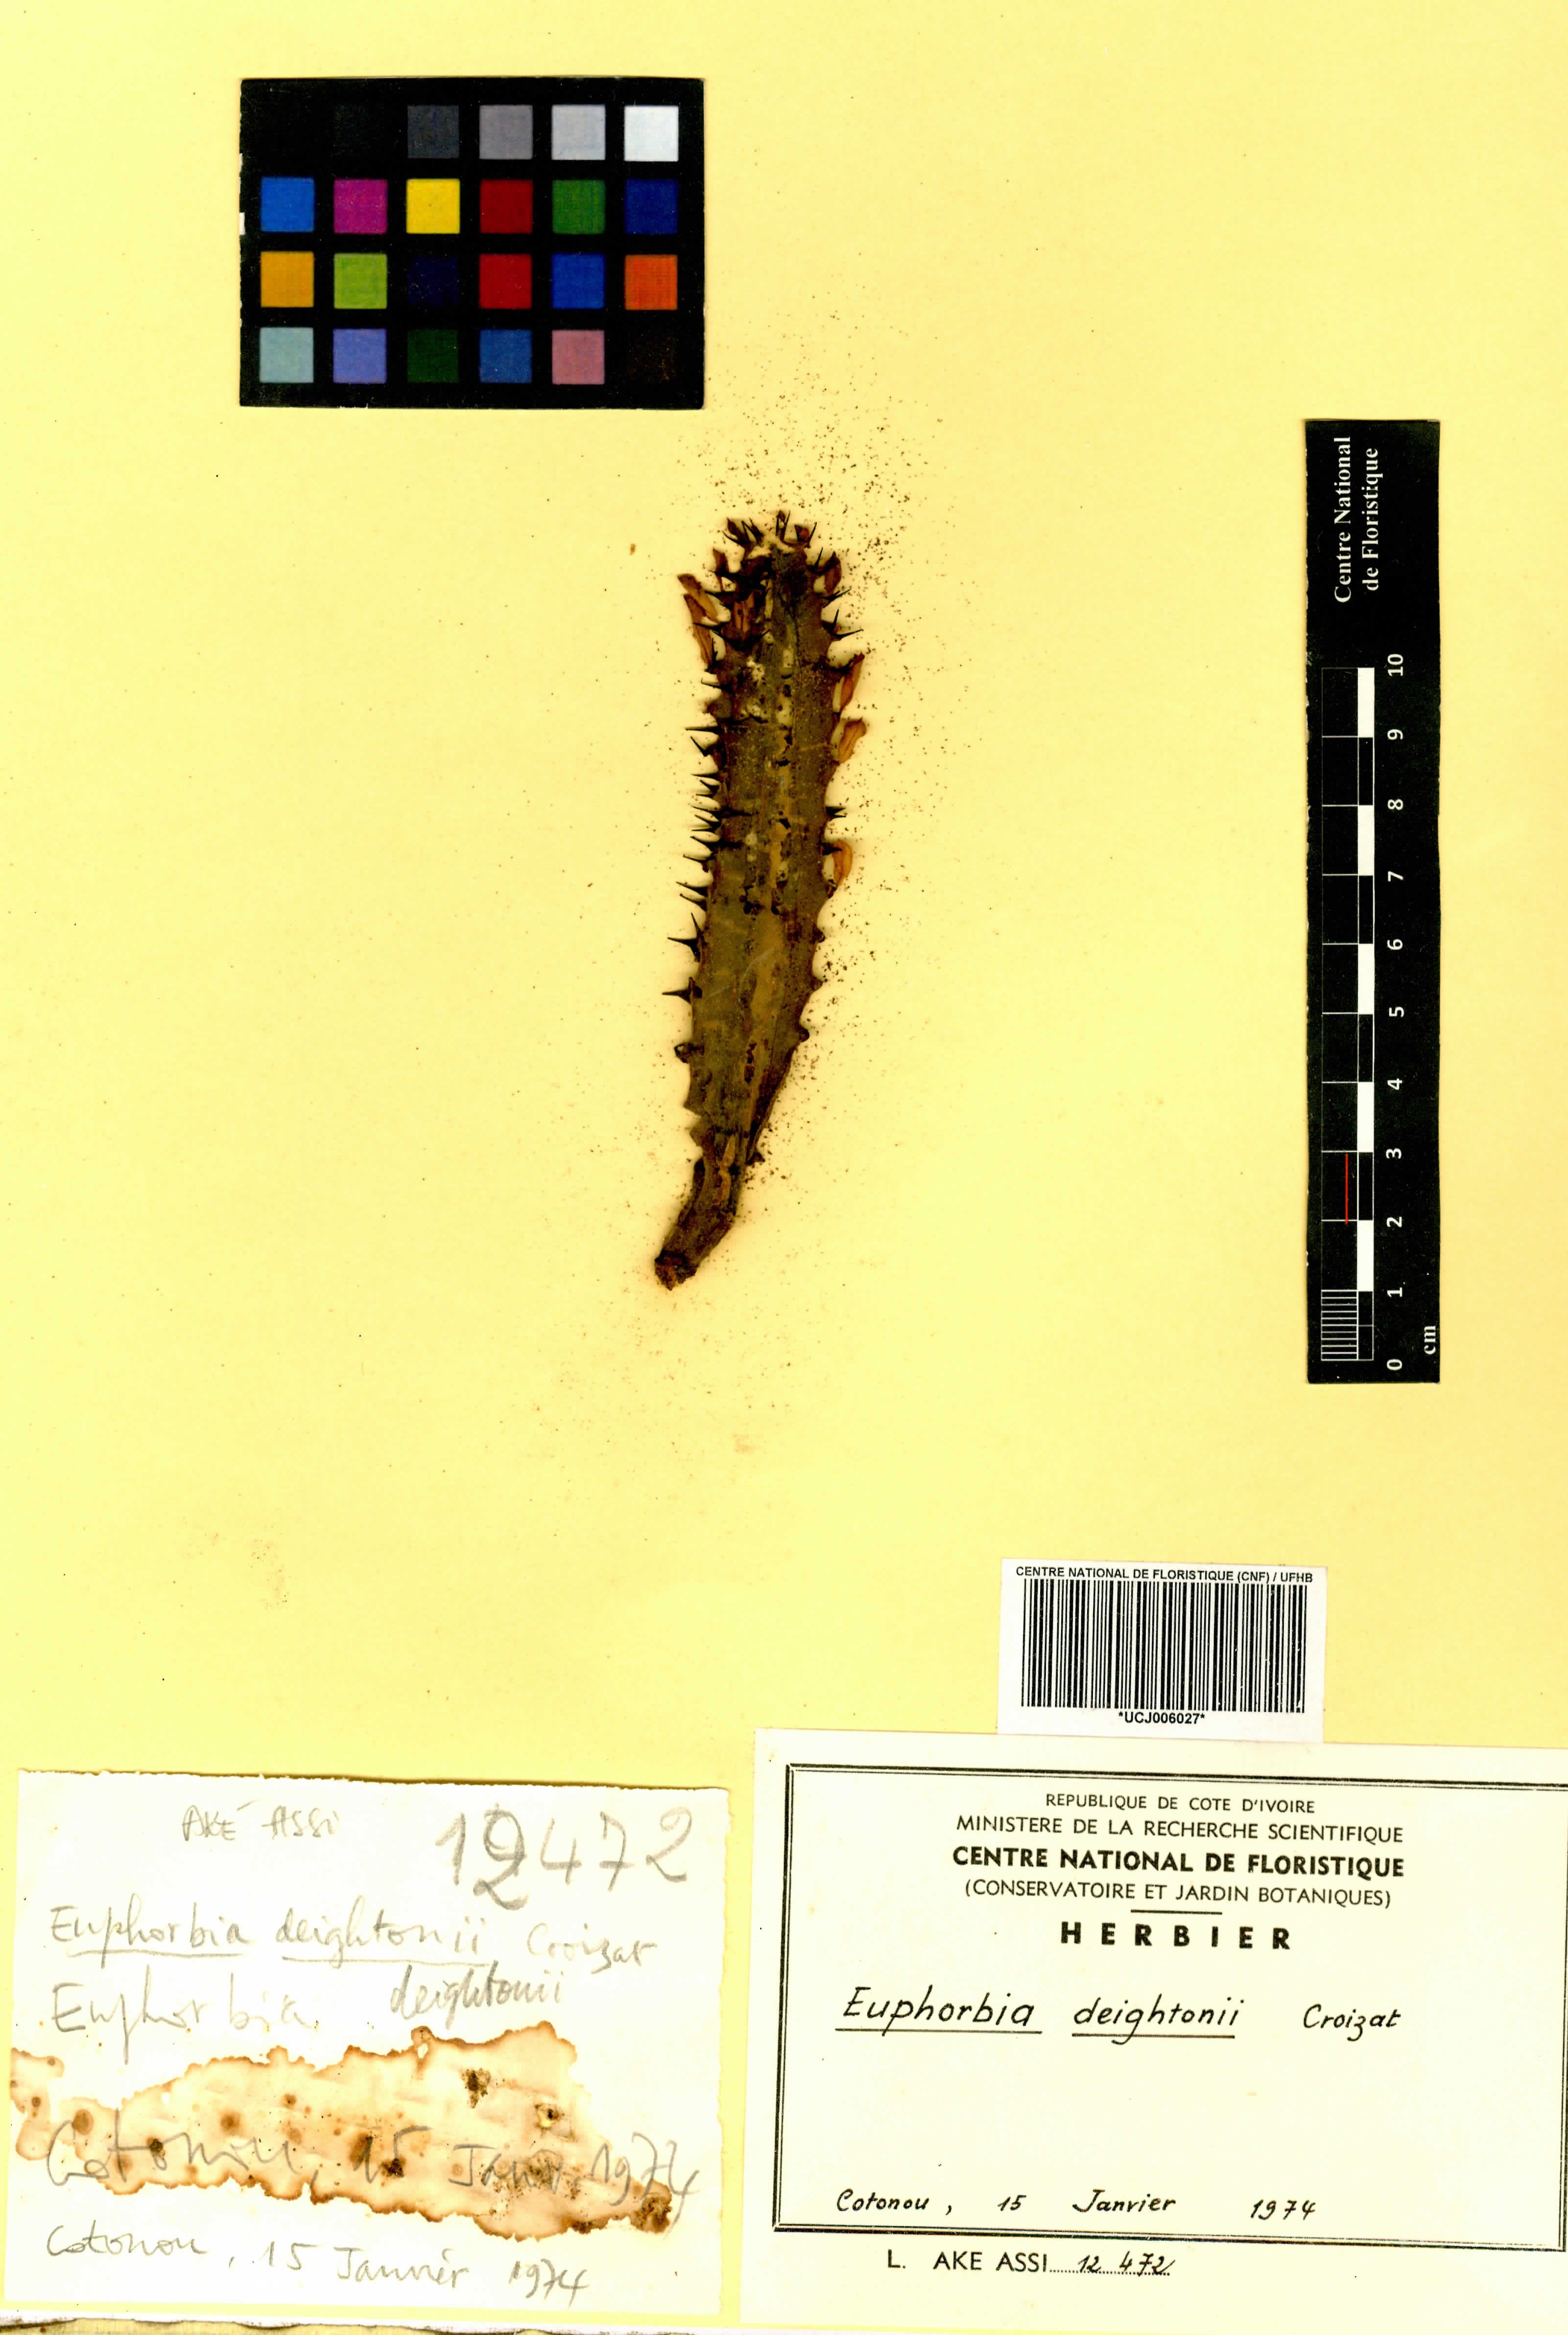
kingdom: Plantae
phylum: Tracheophyta
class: Magnoliopsida
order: Malpighiales
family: Euphorbiaceae
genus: Euphorbia
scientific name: Euphorbia deightonii
